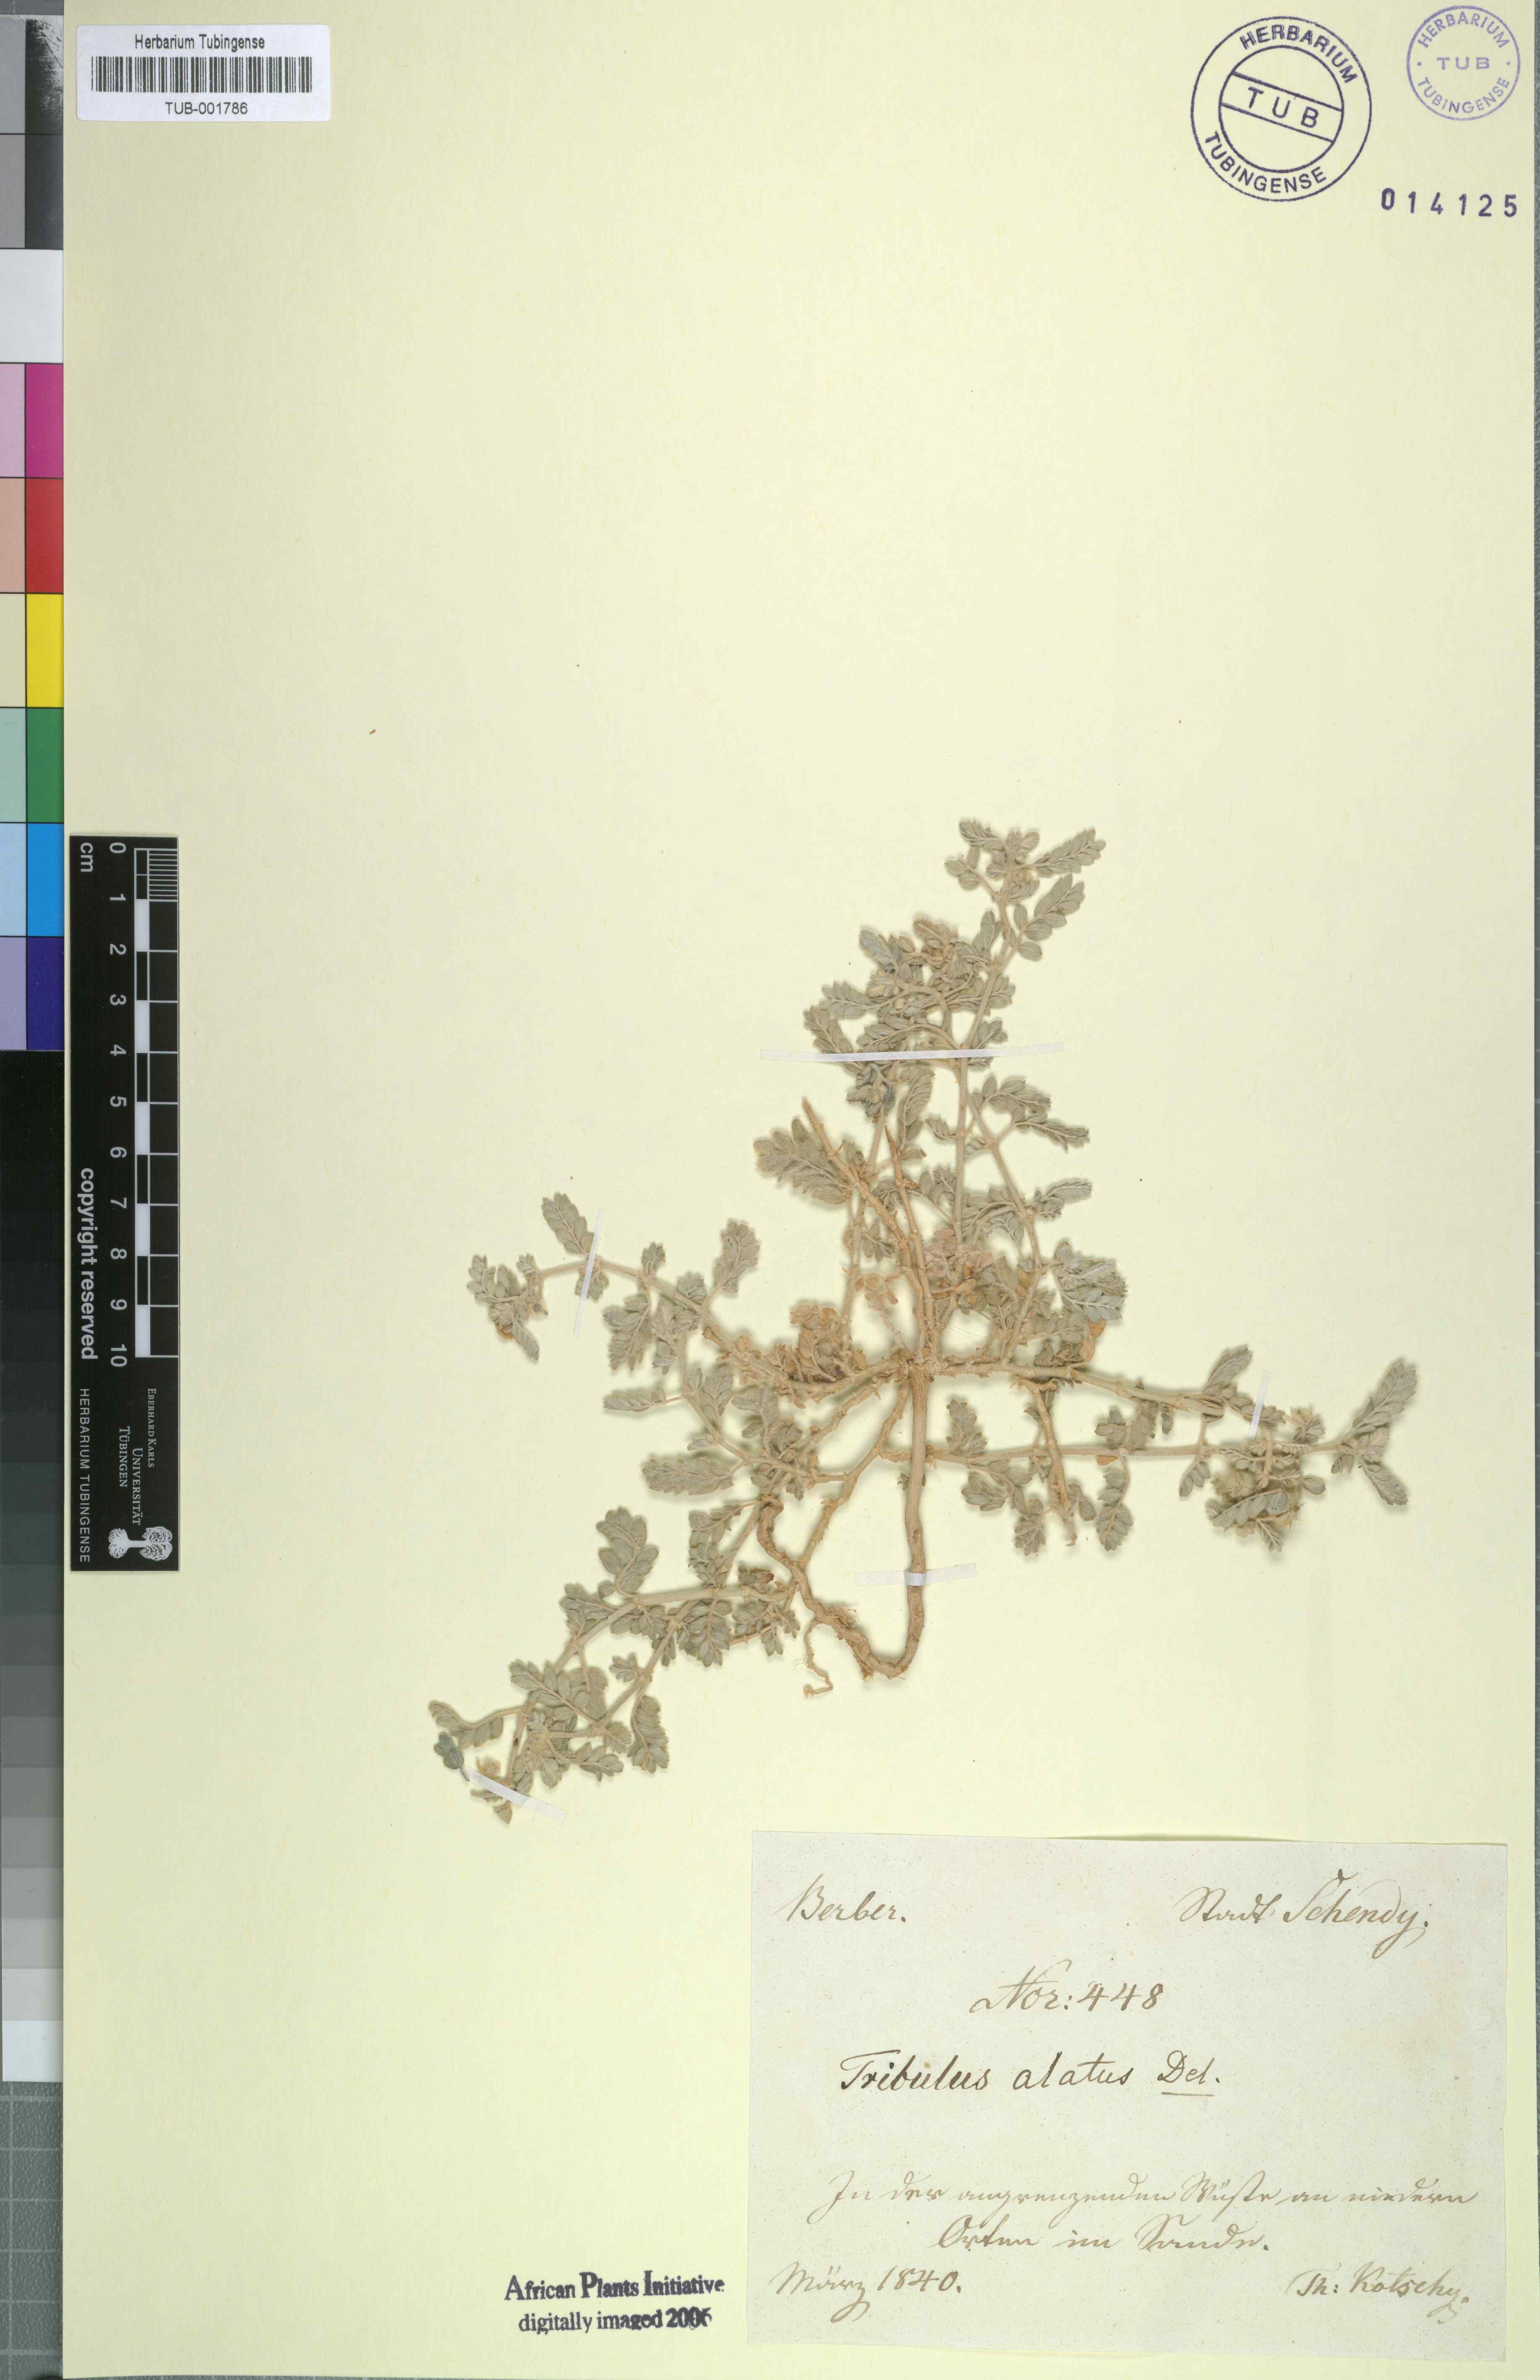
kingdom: Plantae
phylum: Tracheophyta
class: Magnoliopsida
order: Zygophyllales
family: Zygophyllaceae
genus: Tribulus
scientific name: Tribulus pentandrus
